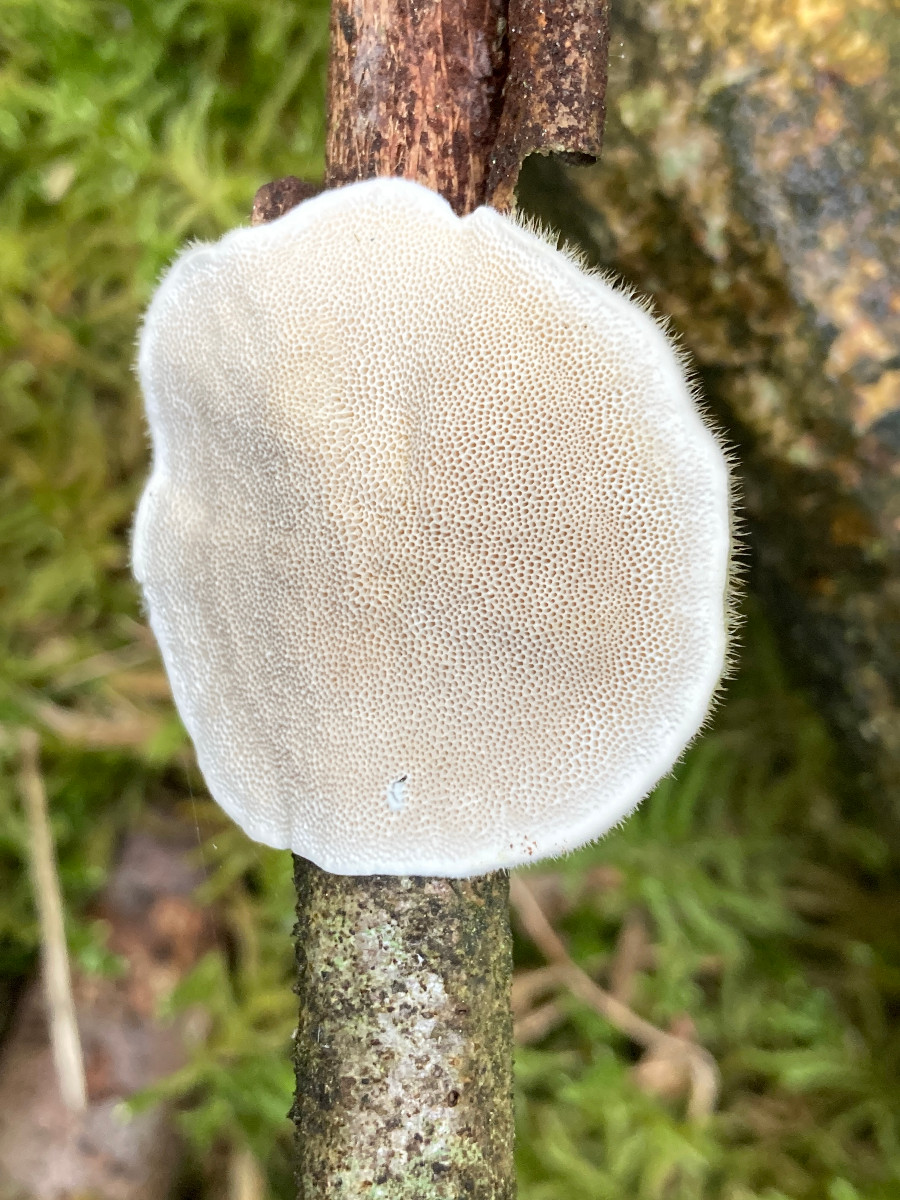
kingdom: Fungi
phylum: Basidiomycota
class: Agaricomycetes
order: Polyporales
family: Polyporaceae
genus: Trametes
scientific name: Trametes hirsuta
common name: håret læderporesvamp
